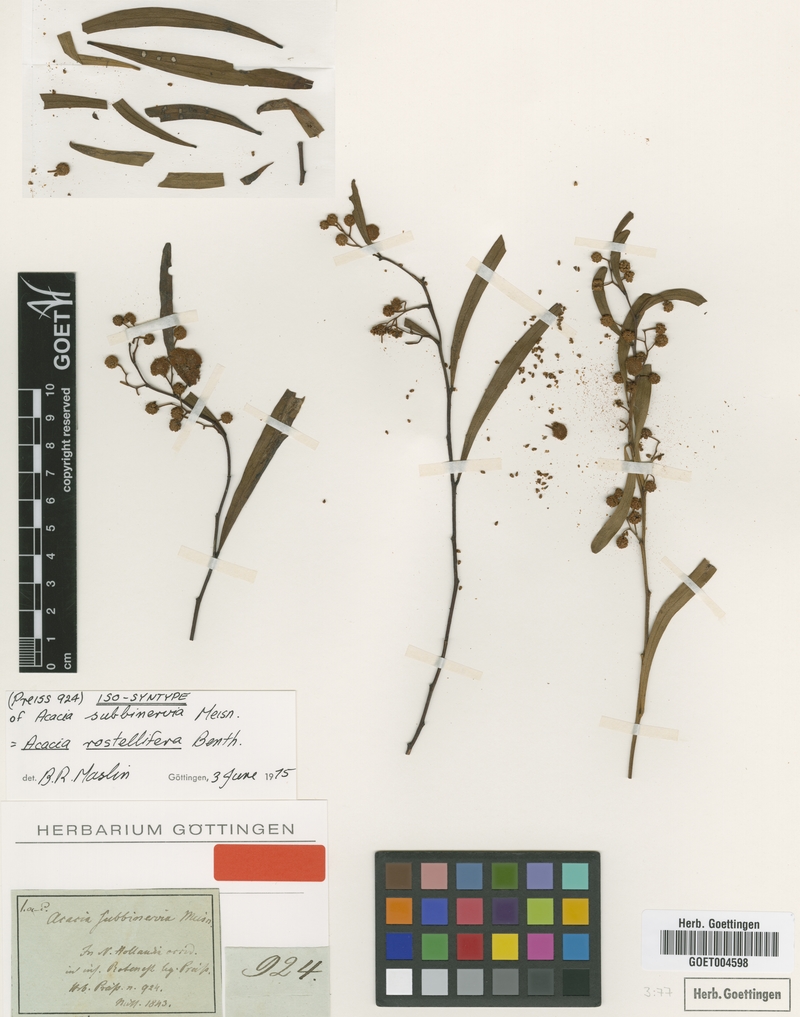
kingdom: Plantae
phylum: Tracheophyta
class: Magnoliopsida
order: Fabales
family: Fabaceae
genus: Acacia
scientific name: Acacia rostellifera
